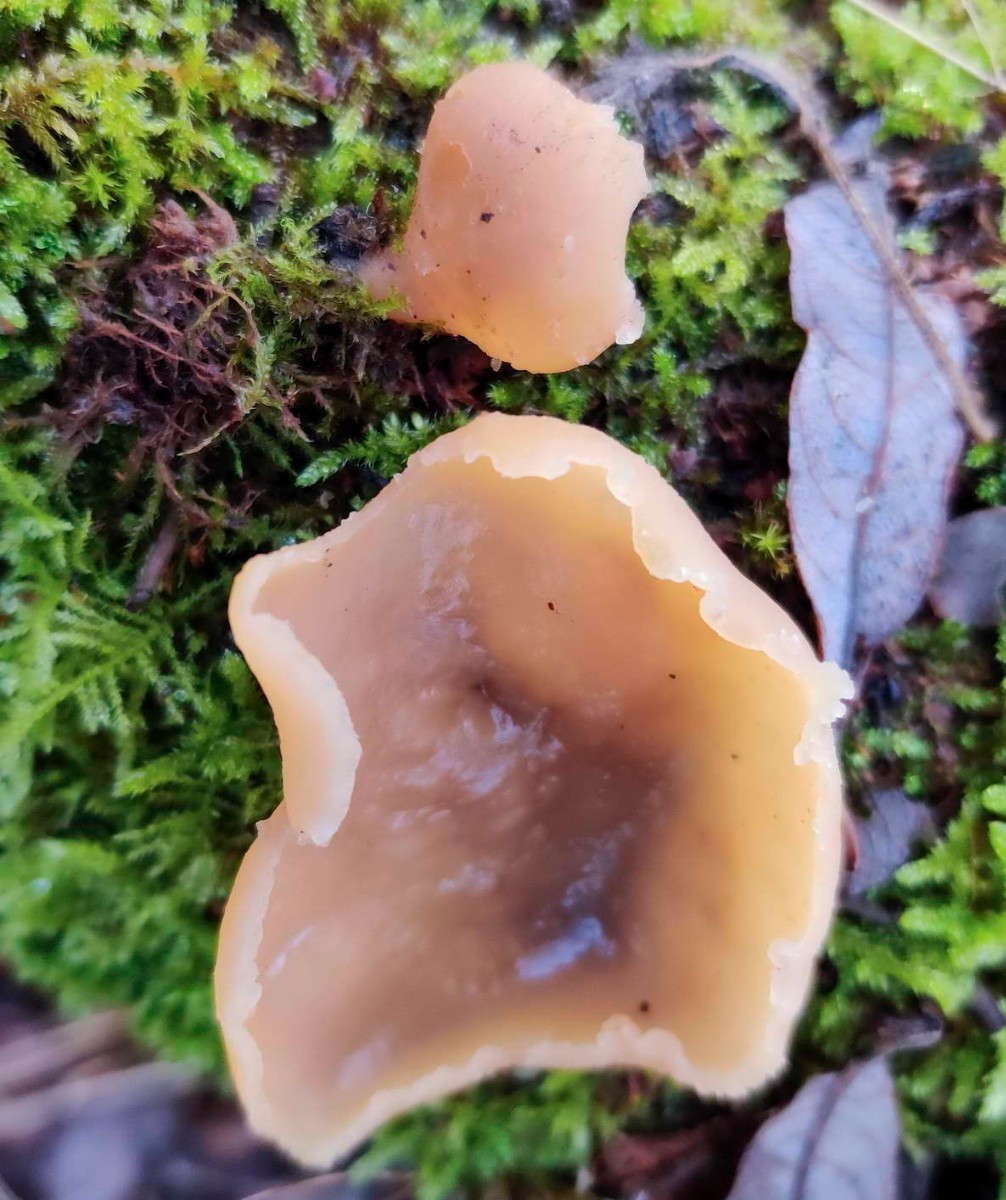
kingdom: Fungi
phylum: Ascomycota
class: Pezizomycetes
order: Pezizales
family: Pezizaceae
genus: Peziza
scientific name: Peziza
